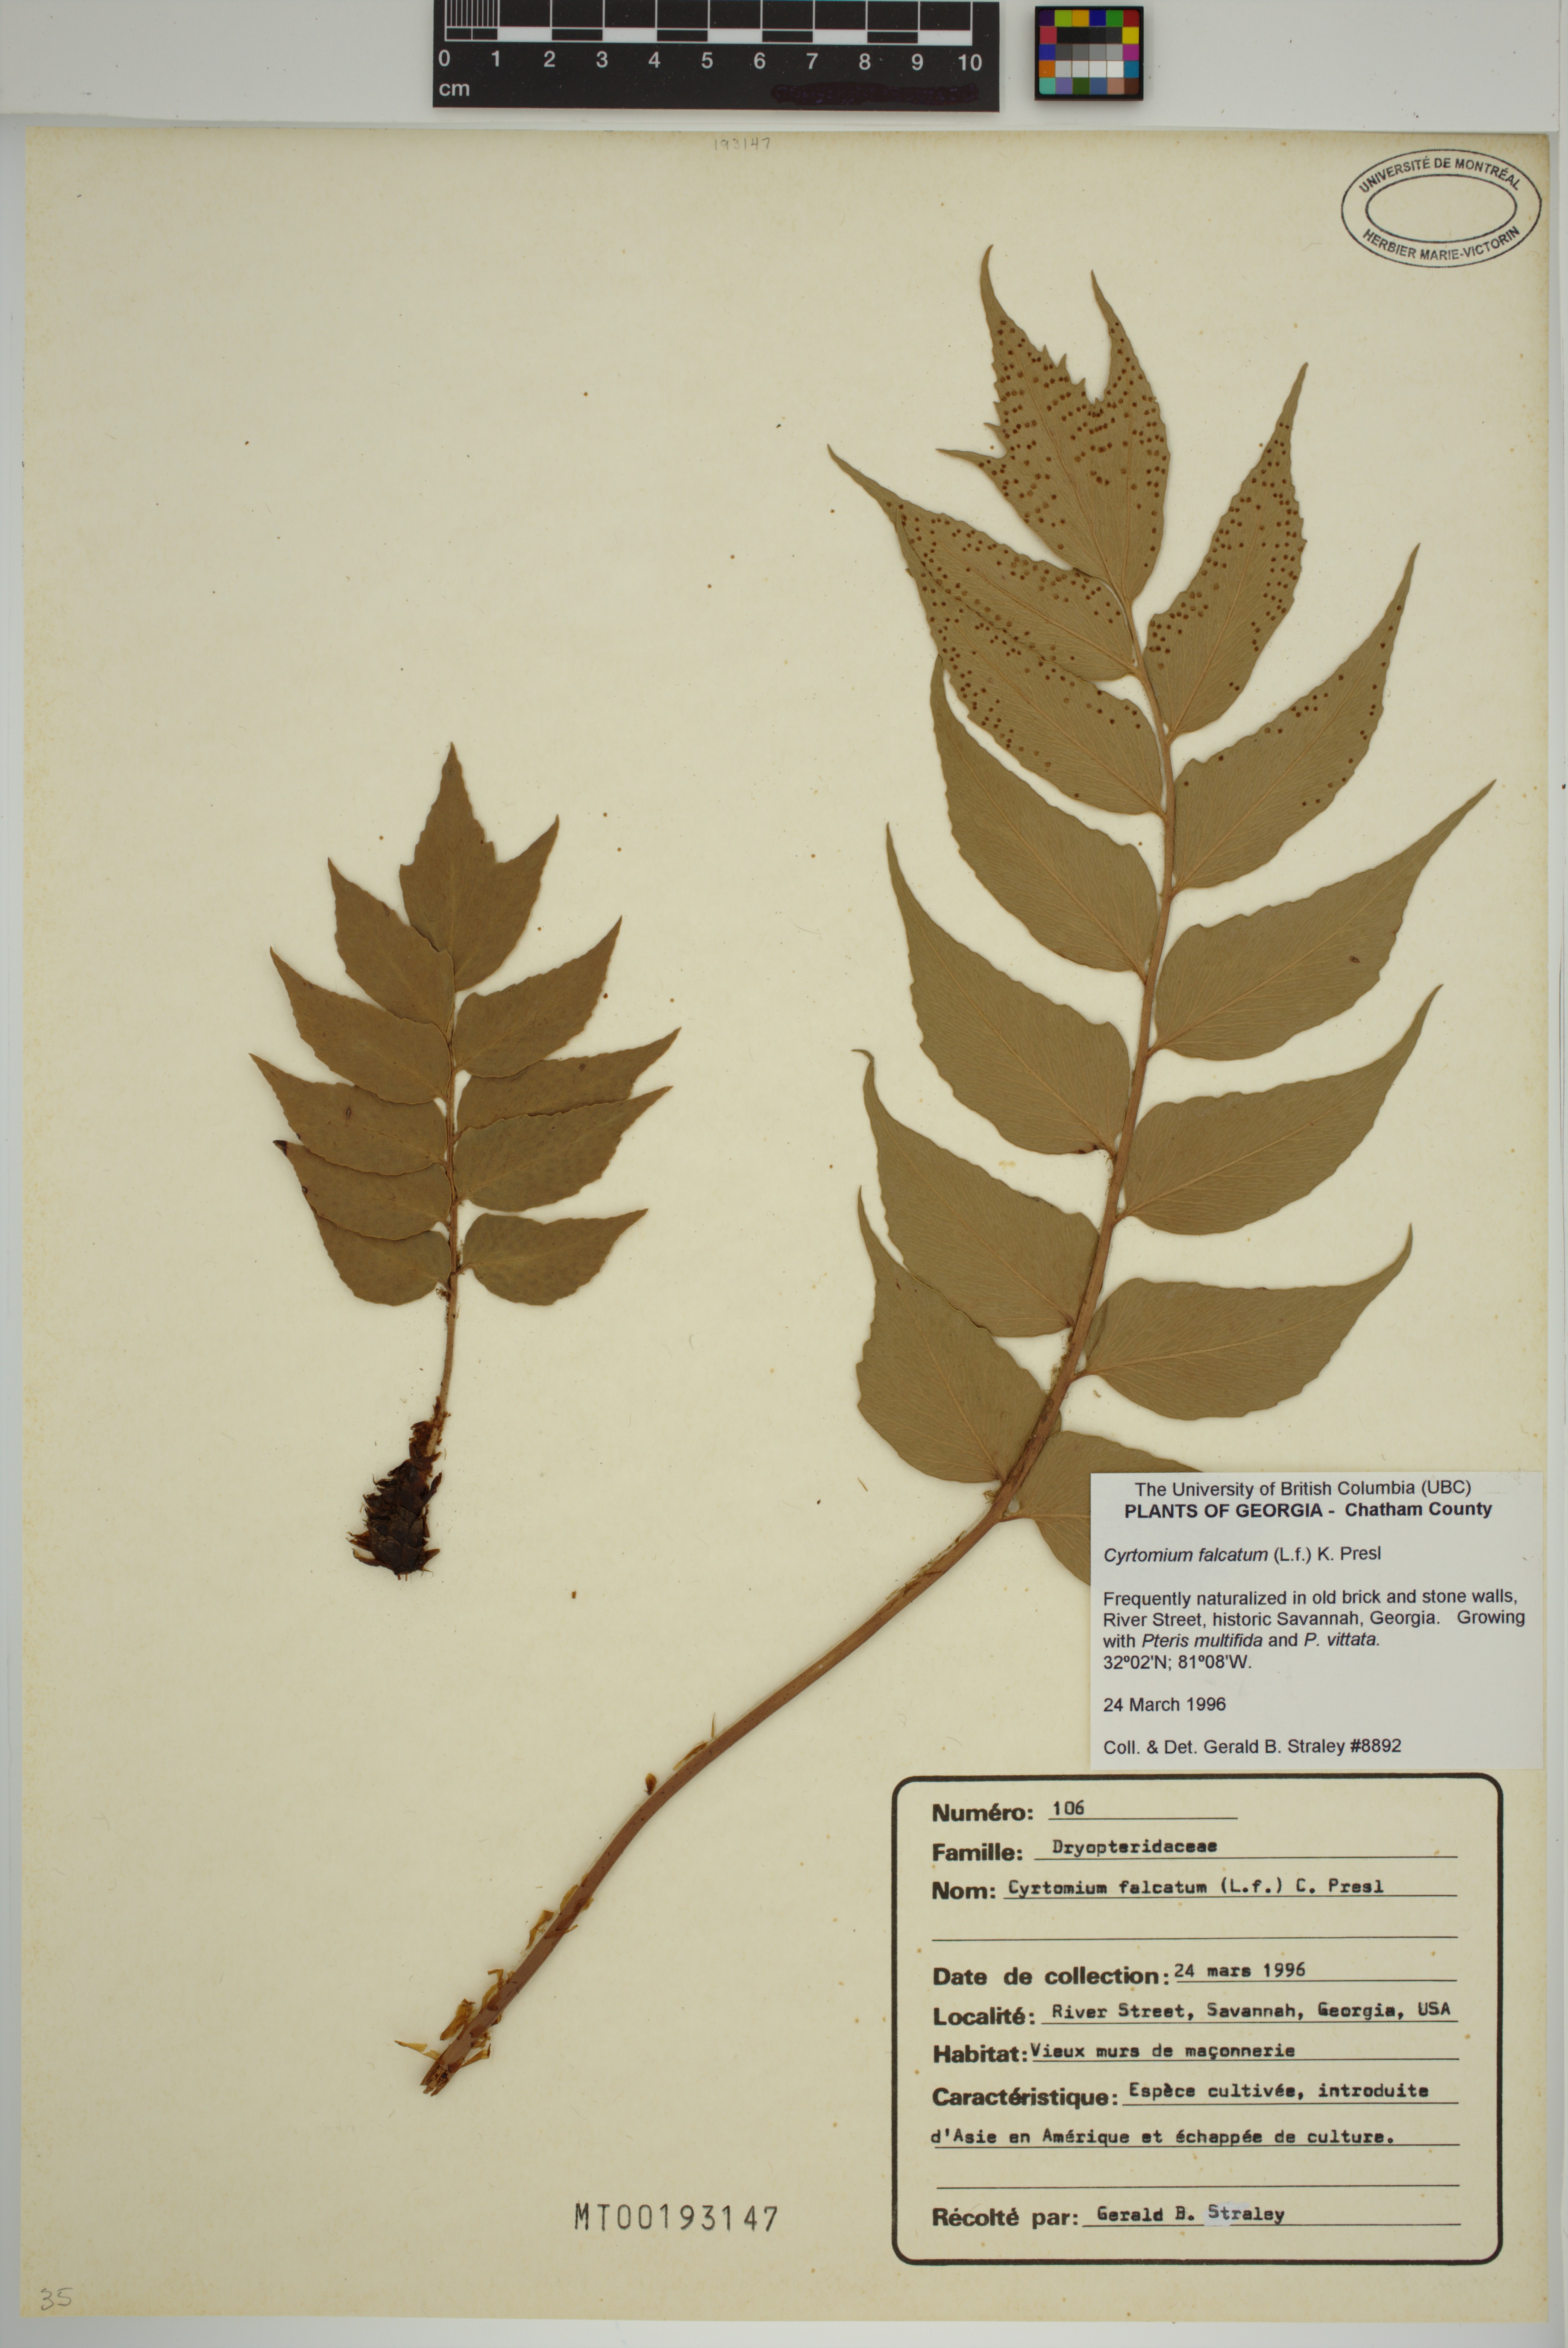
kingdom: Plantae
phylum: Tracheophyta
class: Polypodiopsida
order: Polypodiales
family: Dryopteridaceae
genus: Cyrtomium
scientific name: Cyrtomium falcatum
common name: House holly-fern
